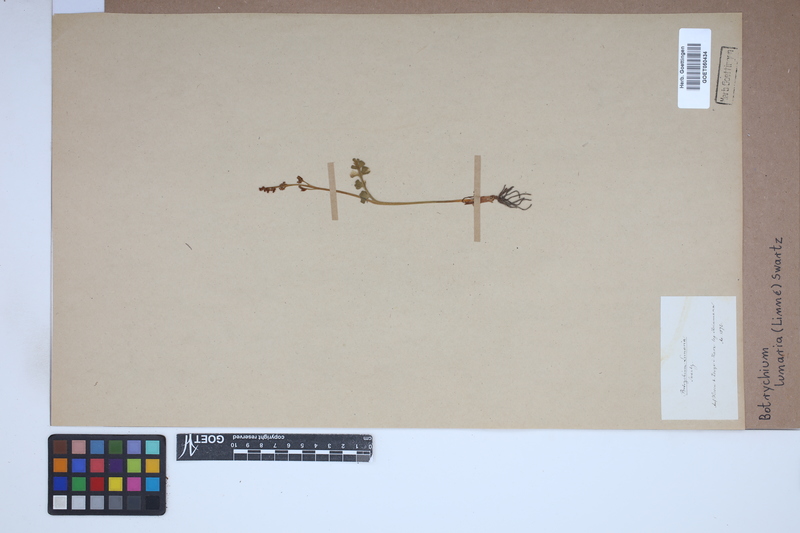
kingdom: Plantae
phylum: Tracheophyta
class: Polypodiopsida
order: Ophioglossales
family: Ophioglossaceae
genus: Botrychium
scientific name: Botrychium lunaria
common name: Moonwort
